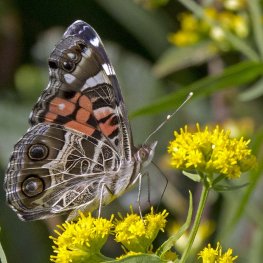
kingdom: Animalia
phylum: Arthropoda
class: Insecta
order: Lepidoptera
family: Nymphalidae
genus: Vanessa
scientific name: Vanessa virginiensis
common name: American Lady
